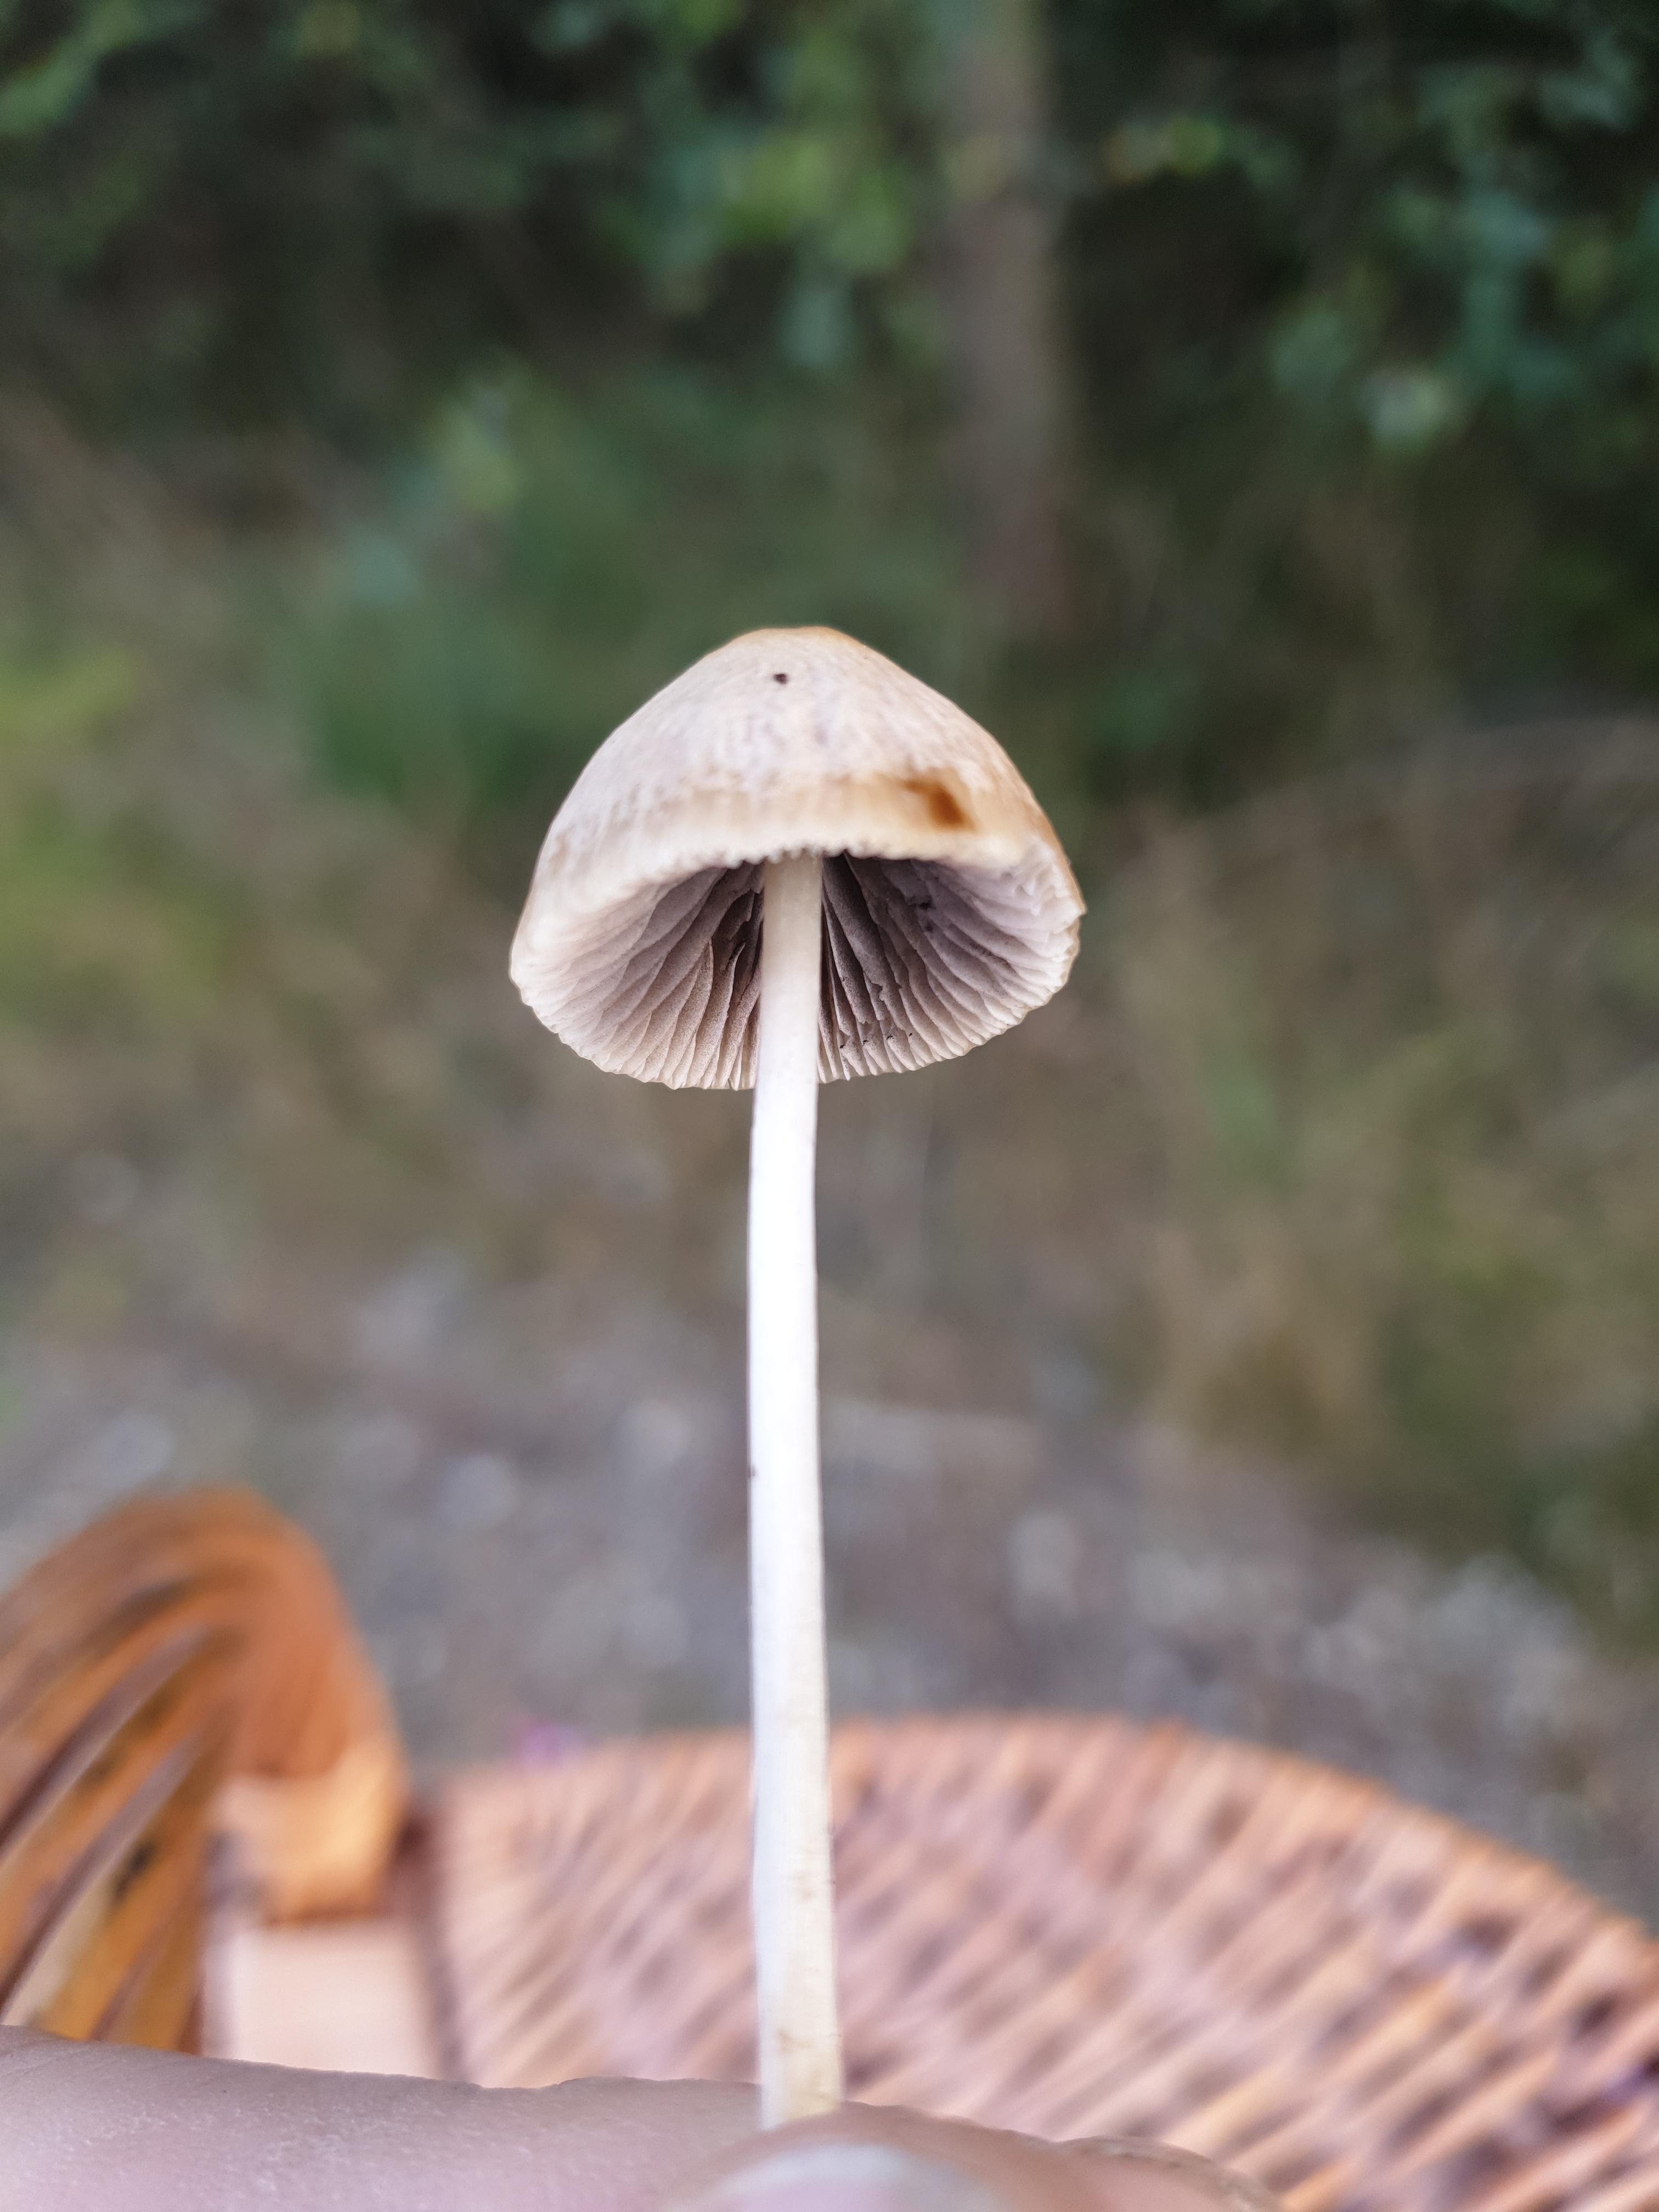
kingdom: Fungi
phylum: Basidiomycota
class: Agaricomycetes
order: Agaricales
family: Psathyrellaceae
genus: Psathyrella
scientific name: Psathyrella
